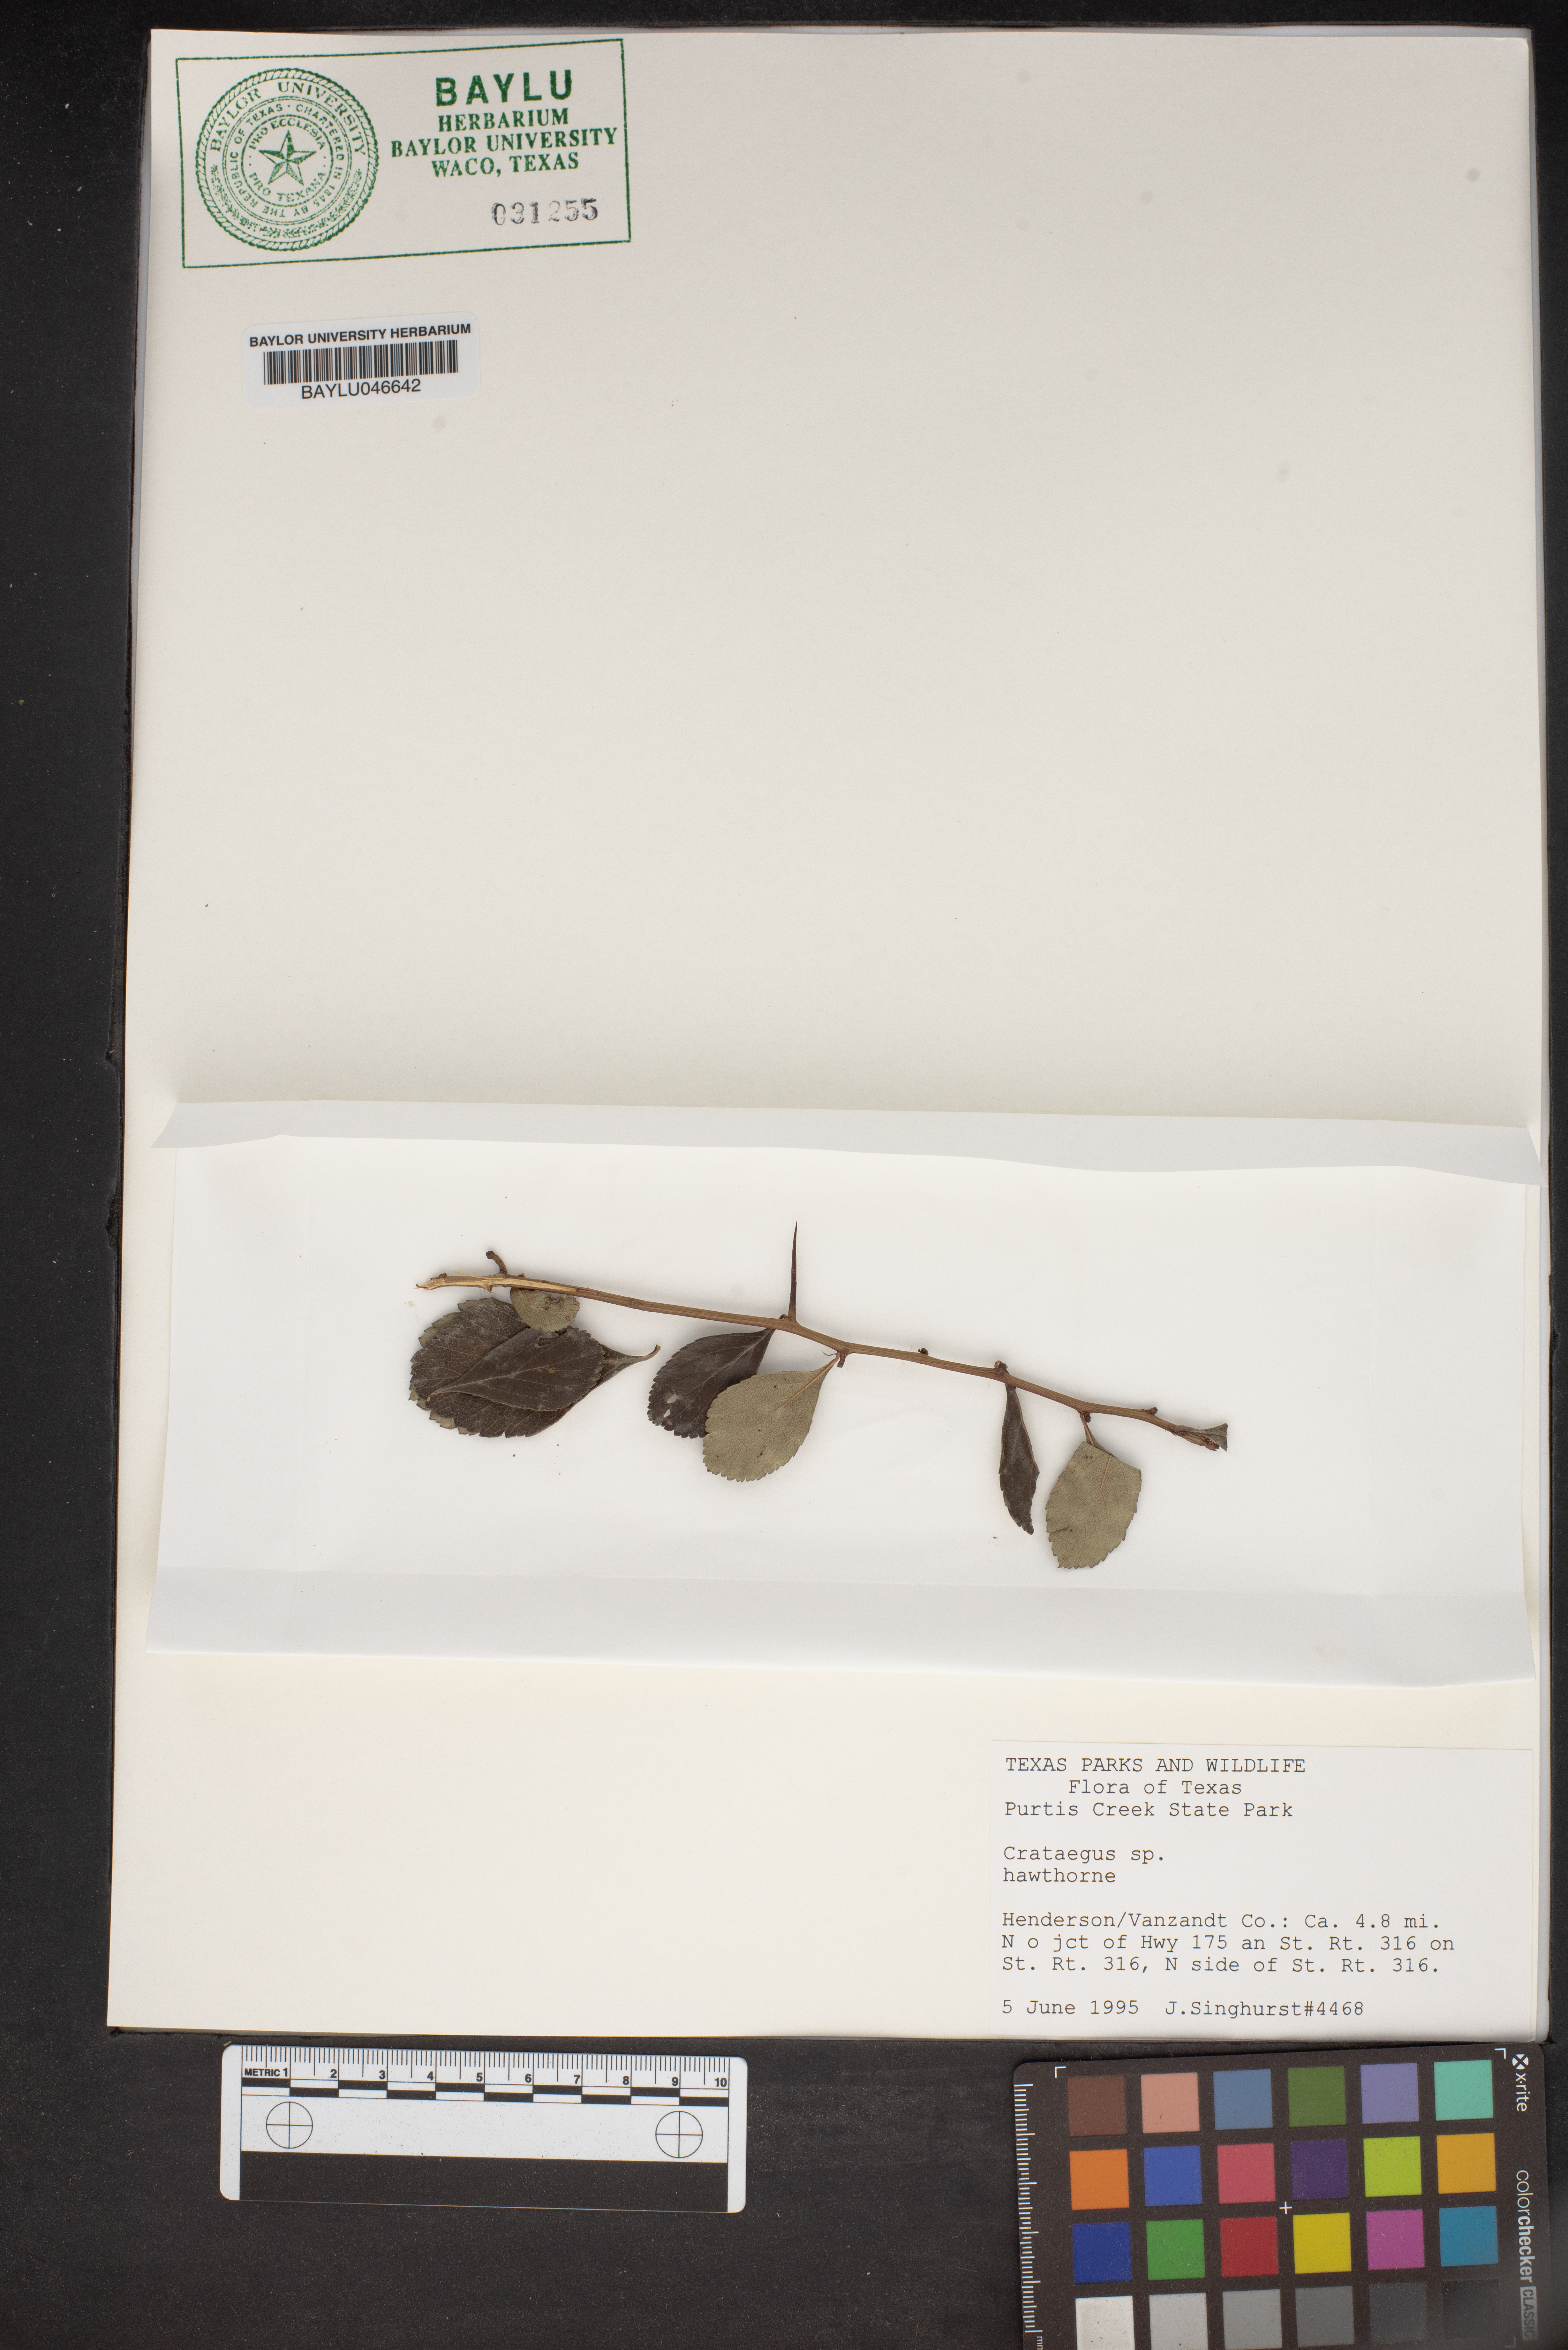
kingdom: Plantae
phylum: Tracheophyta
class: Magnoliopsida
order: Rosales
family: Rosaceae
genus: Crataegus
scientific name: Crataegus
